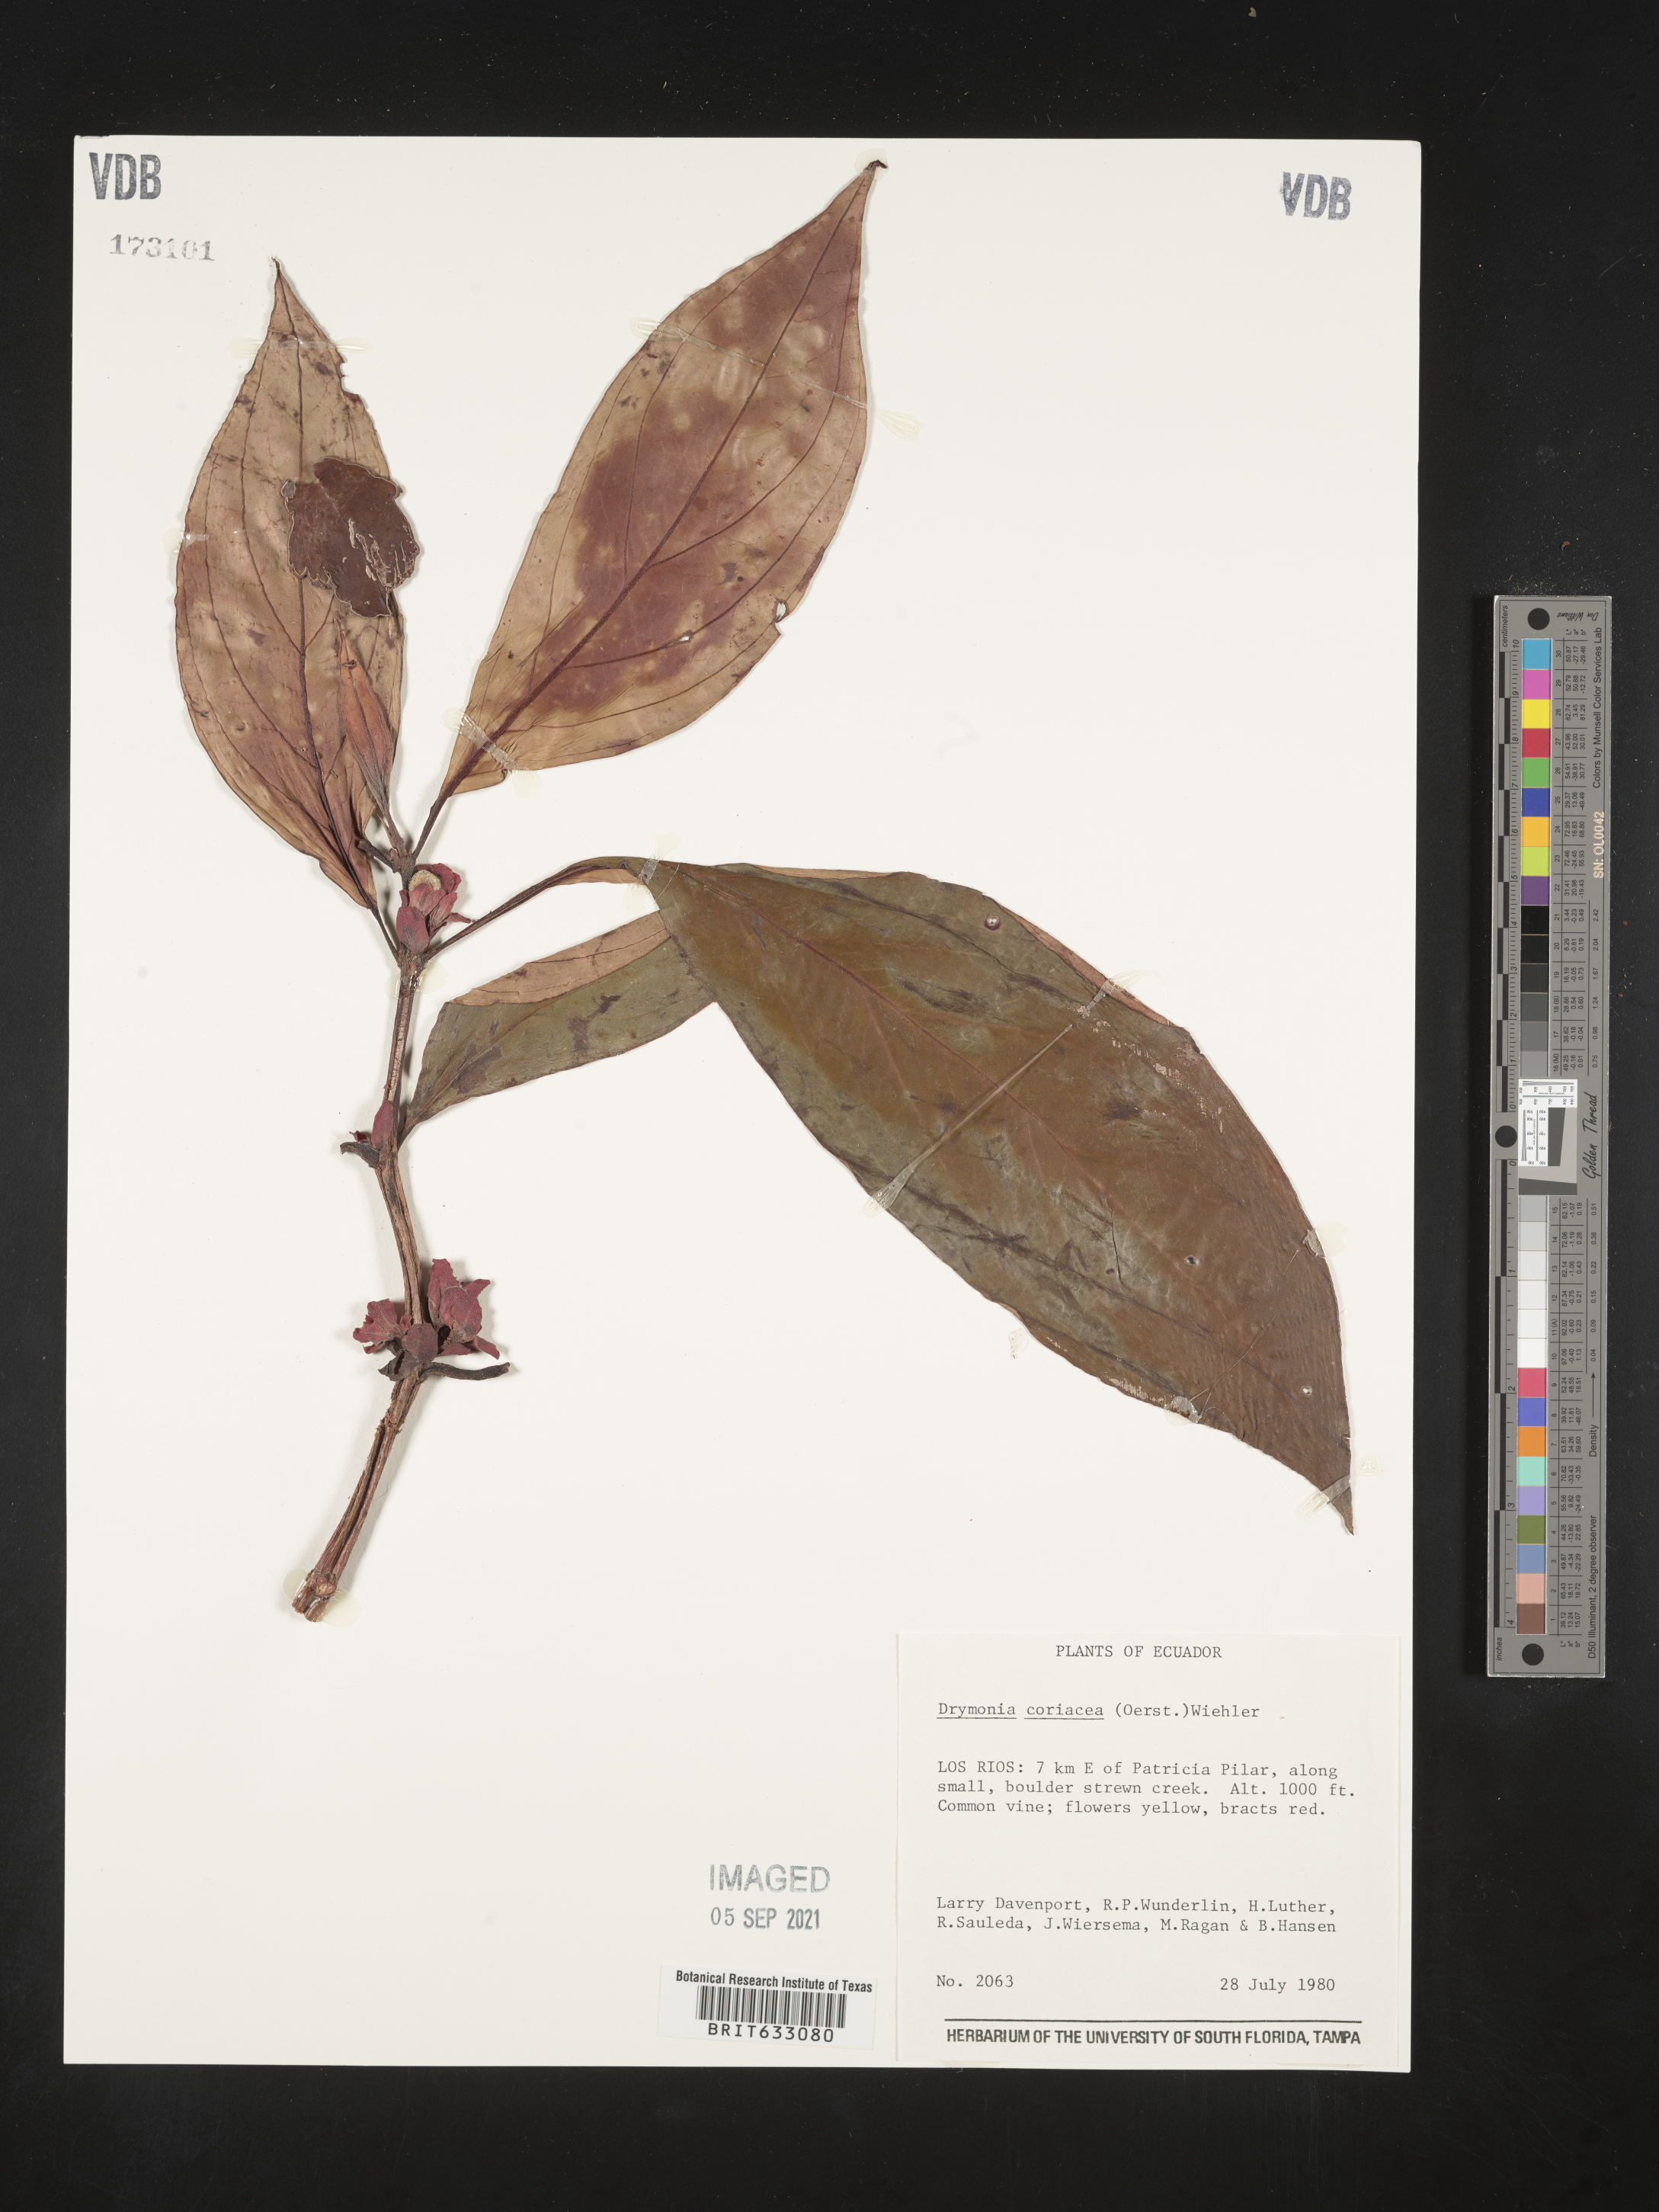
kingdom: Plantae
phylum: Tracheophyta
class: Magnoliopsida
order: Lamiales
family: Gesneriaceae
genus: Drymonia
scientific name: Drymonia
